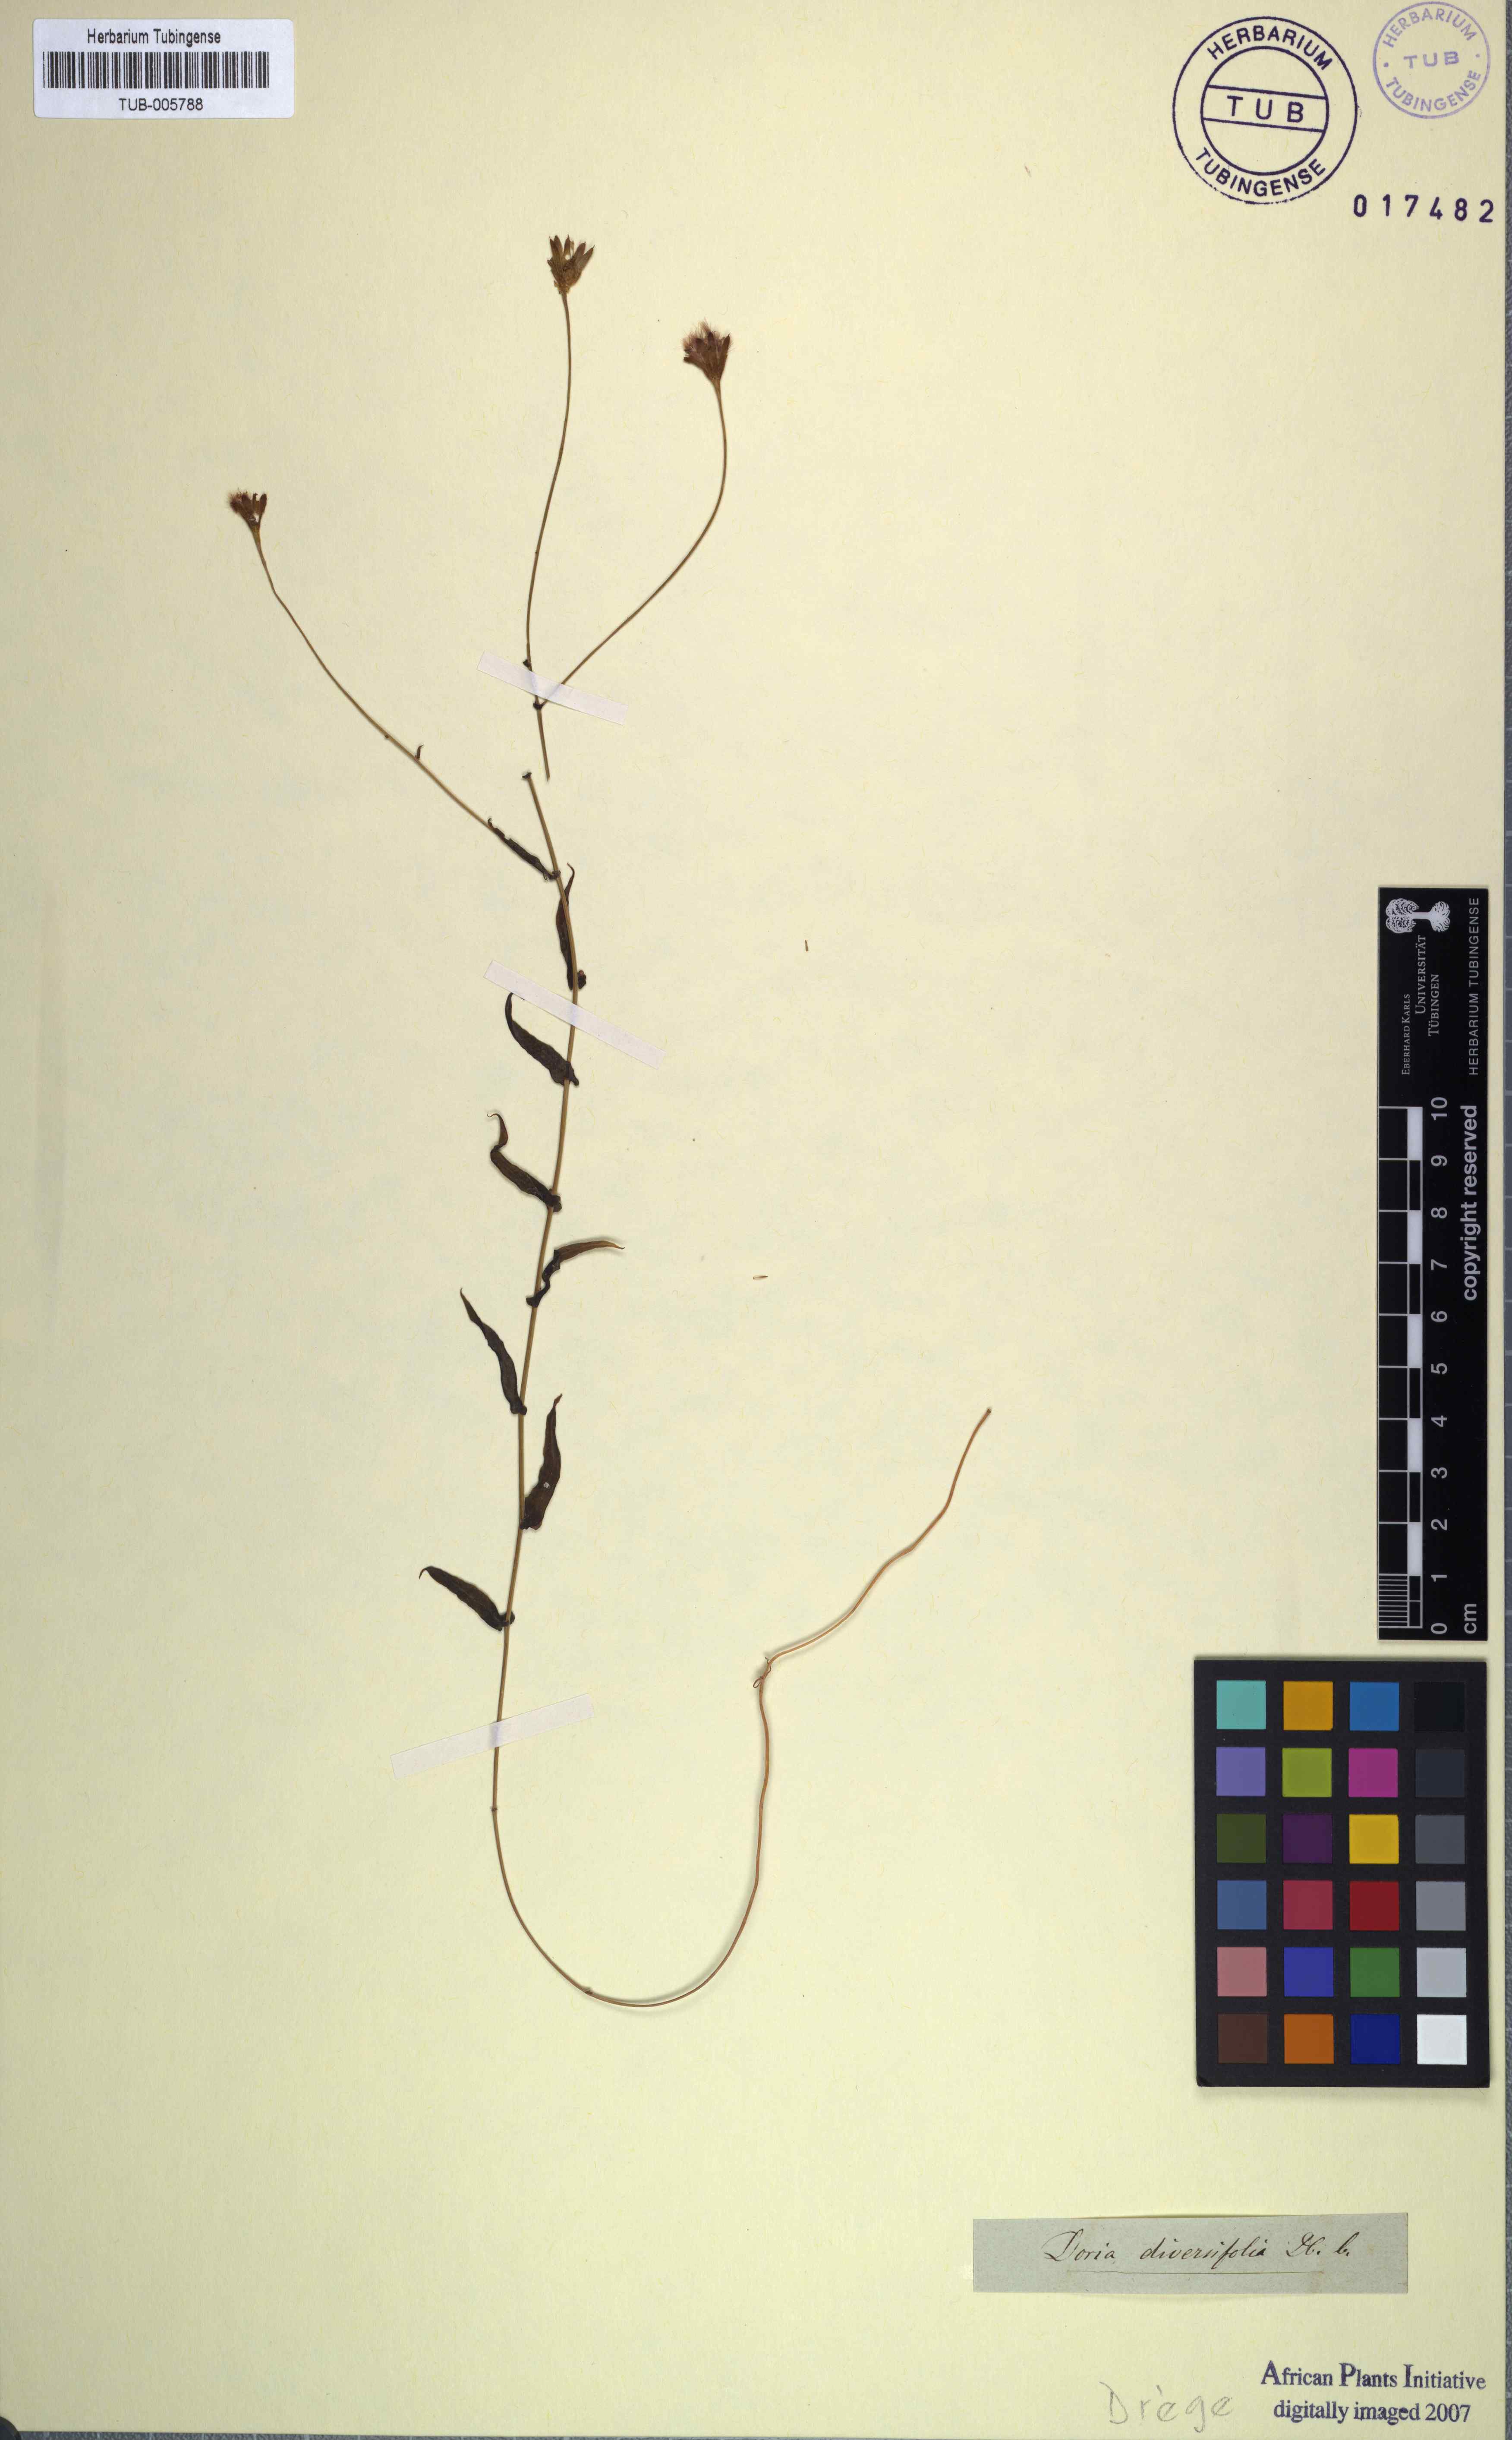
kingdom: Plantae
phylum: Tracheophyta
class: Magnoliopsida
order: Asterales
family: Asteraceae
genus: Othonna
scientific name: Othonna undulosa
